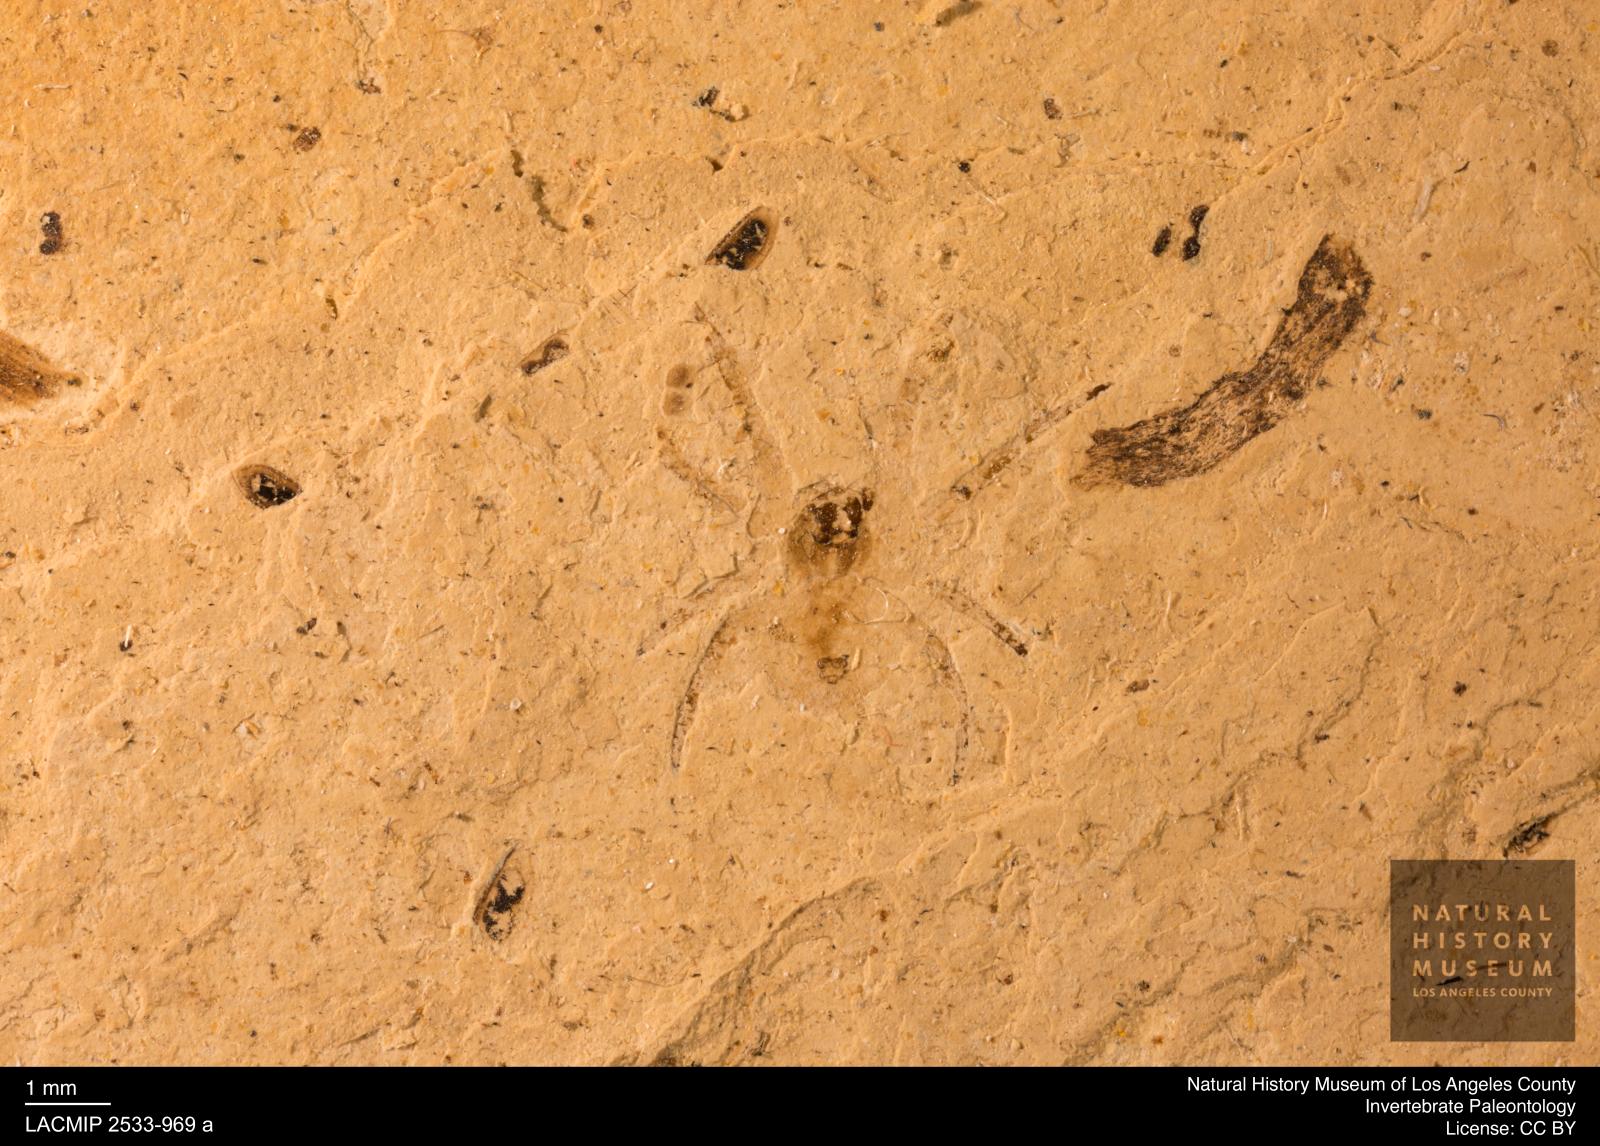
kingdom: Animalia
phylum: Arthropoda
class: Arachnida
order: Araneae
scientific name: Araneae
